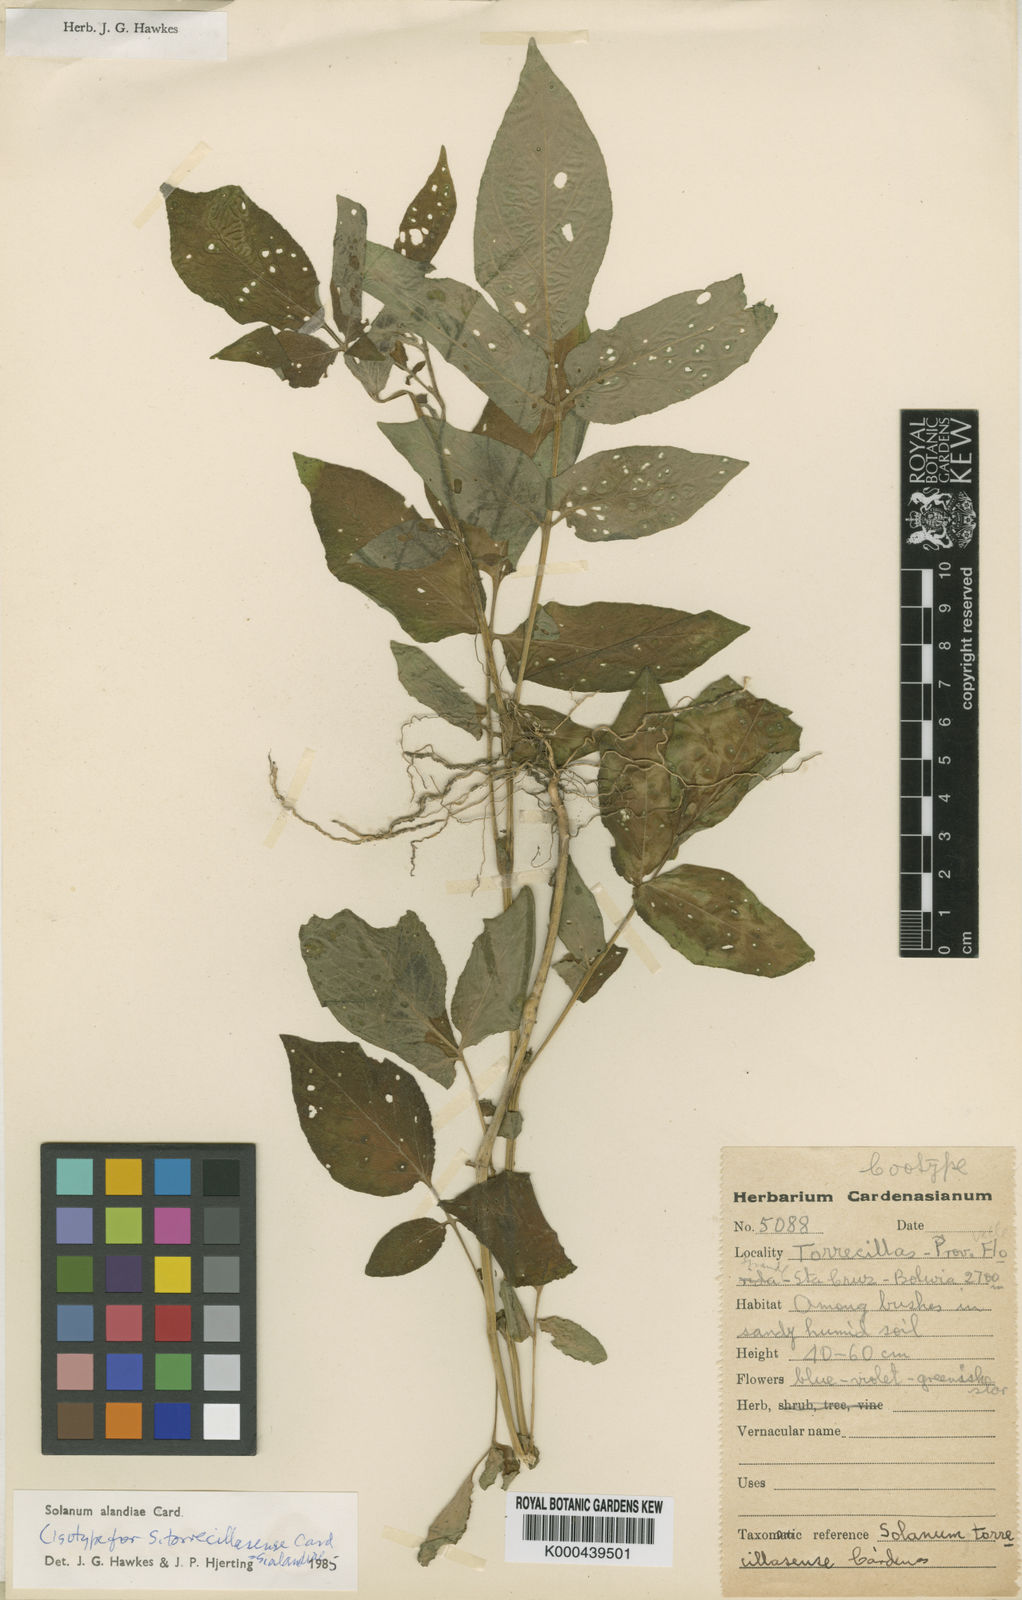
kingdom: Plantae
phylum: Tracheophyta
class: Magnoliopsida
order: Solanales
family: Solanaceae
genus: Solanum
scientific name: Solanum
